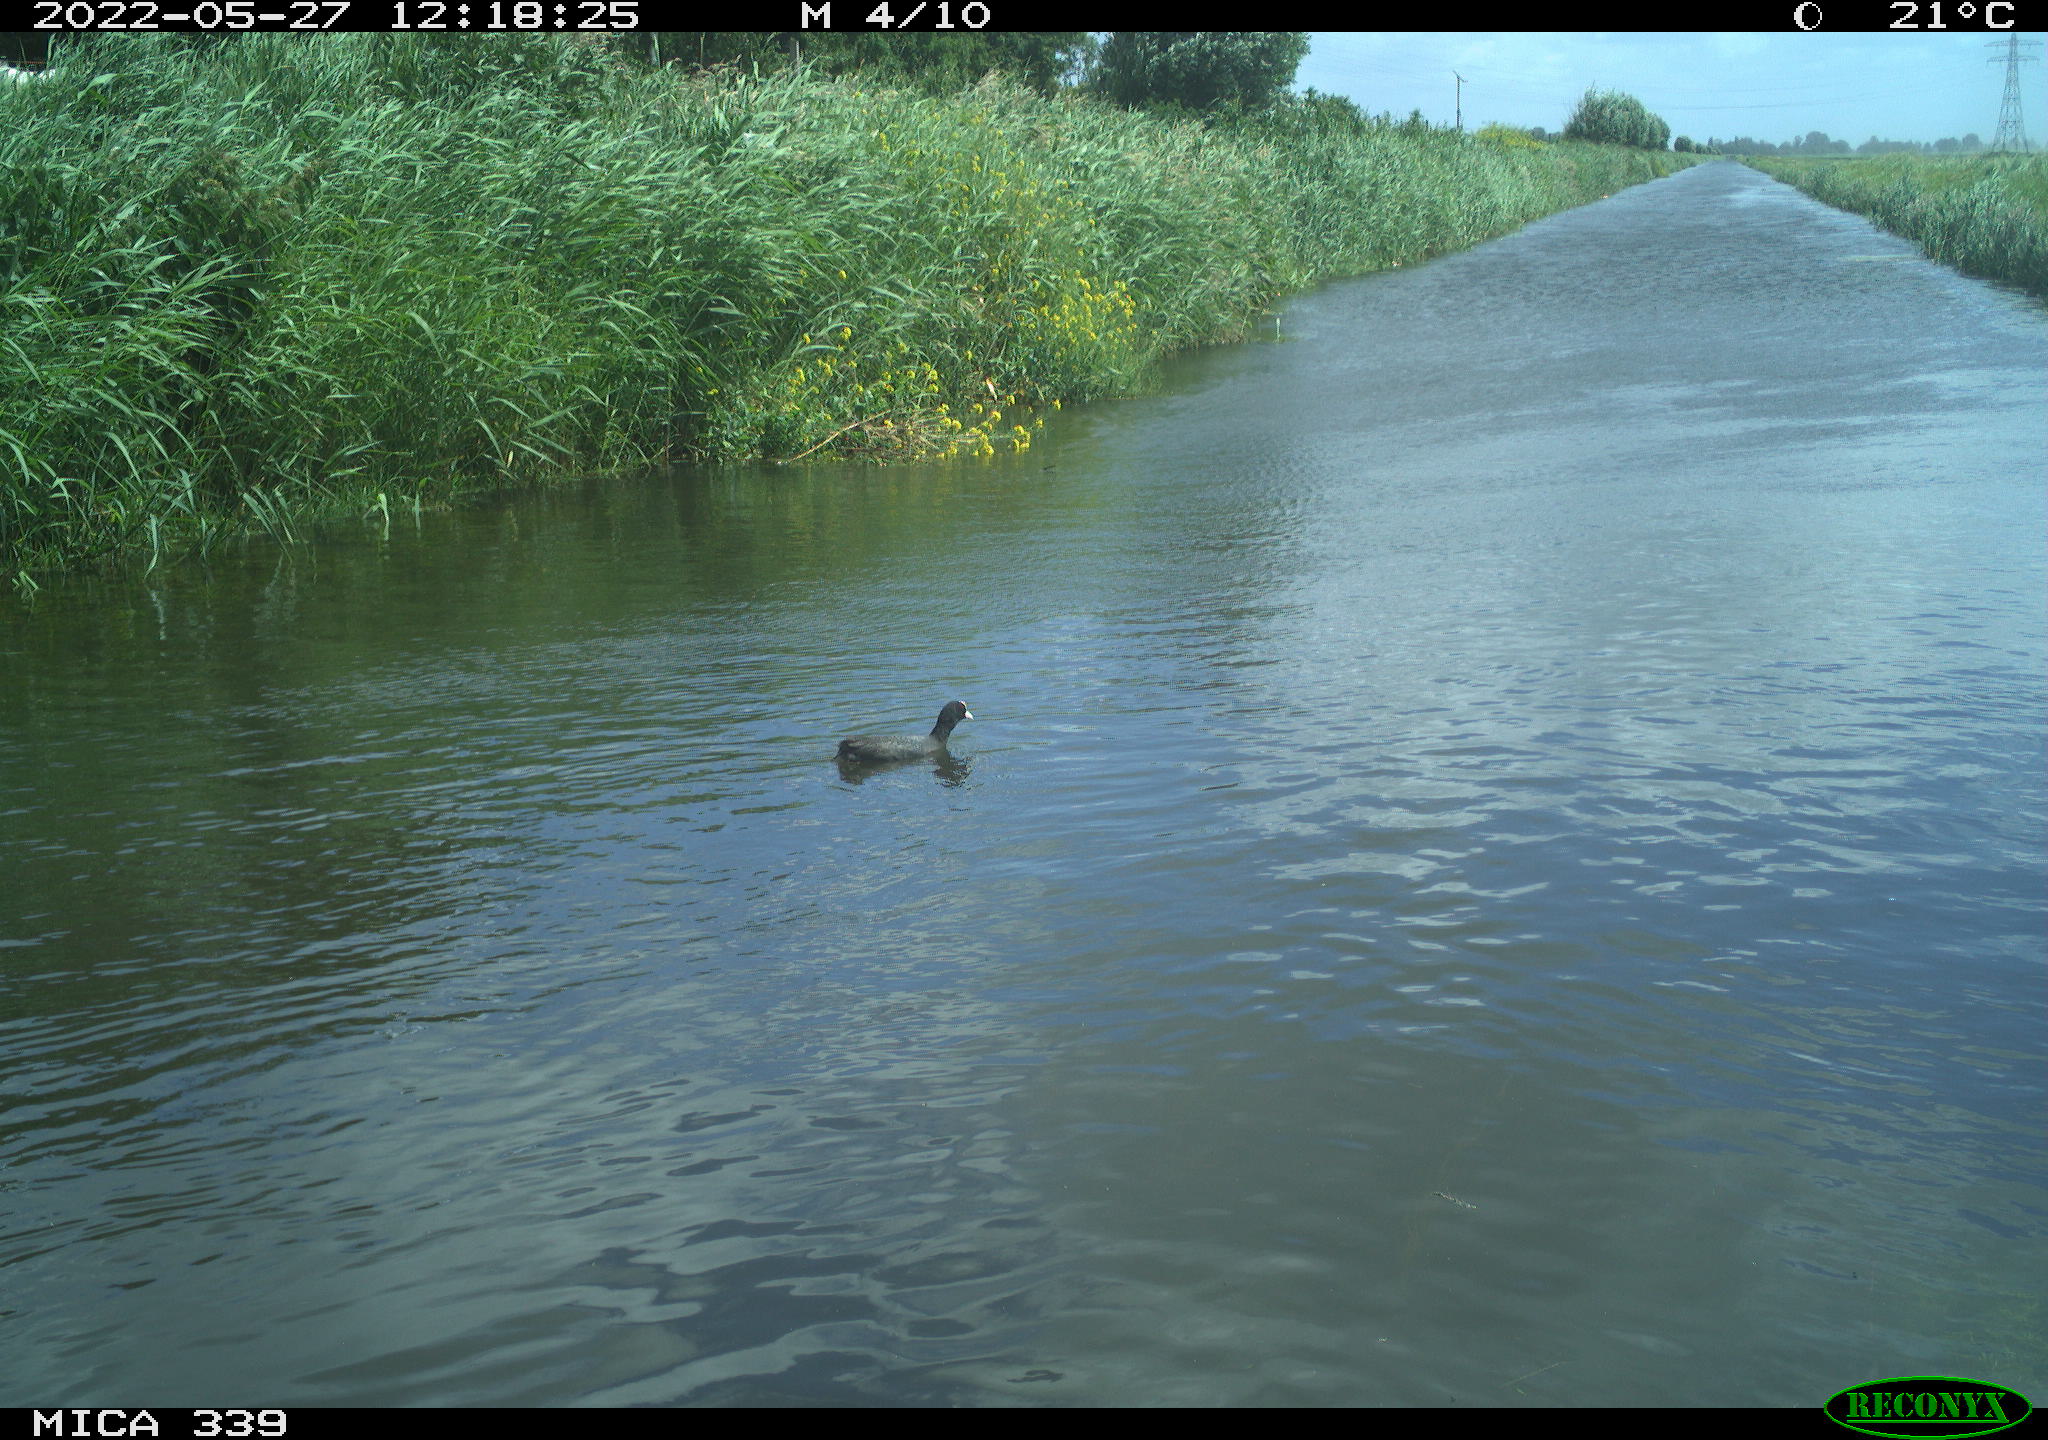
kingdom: Animalia
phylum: Chordata
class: Aves
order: Gruiformes
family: Rallidae
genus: Fulica
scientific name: Fulica atra
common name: Eurasian coot
